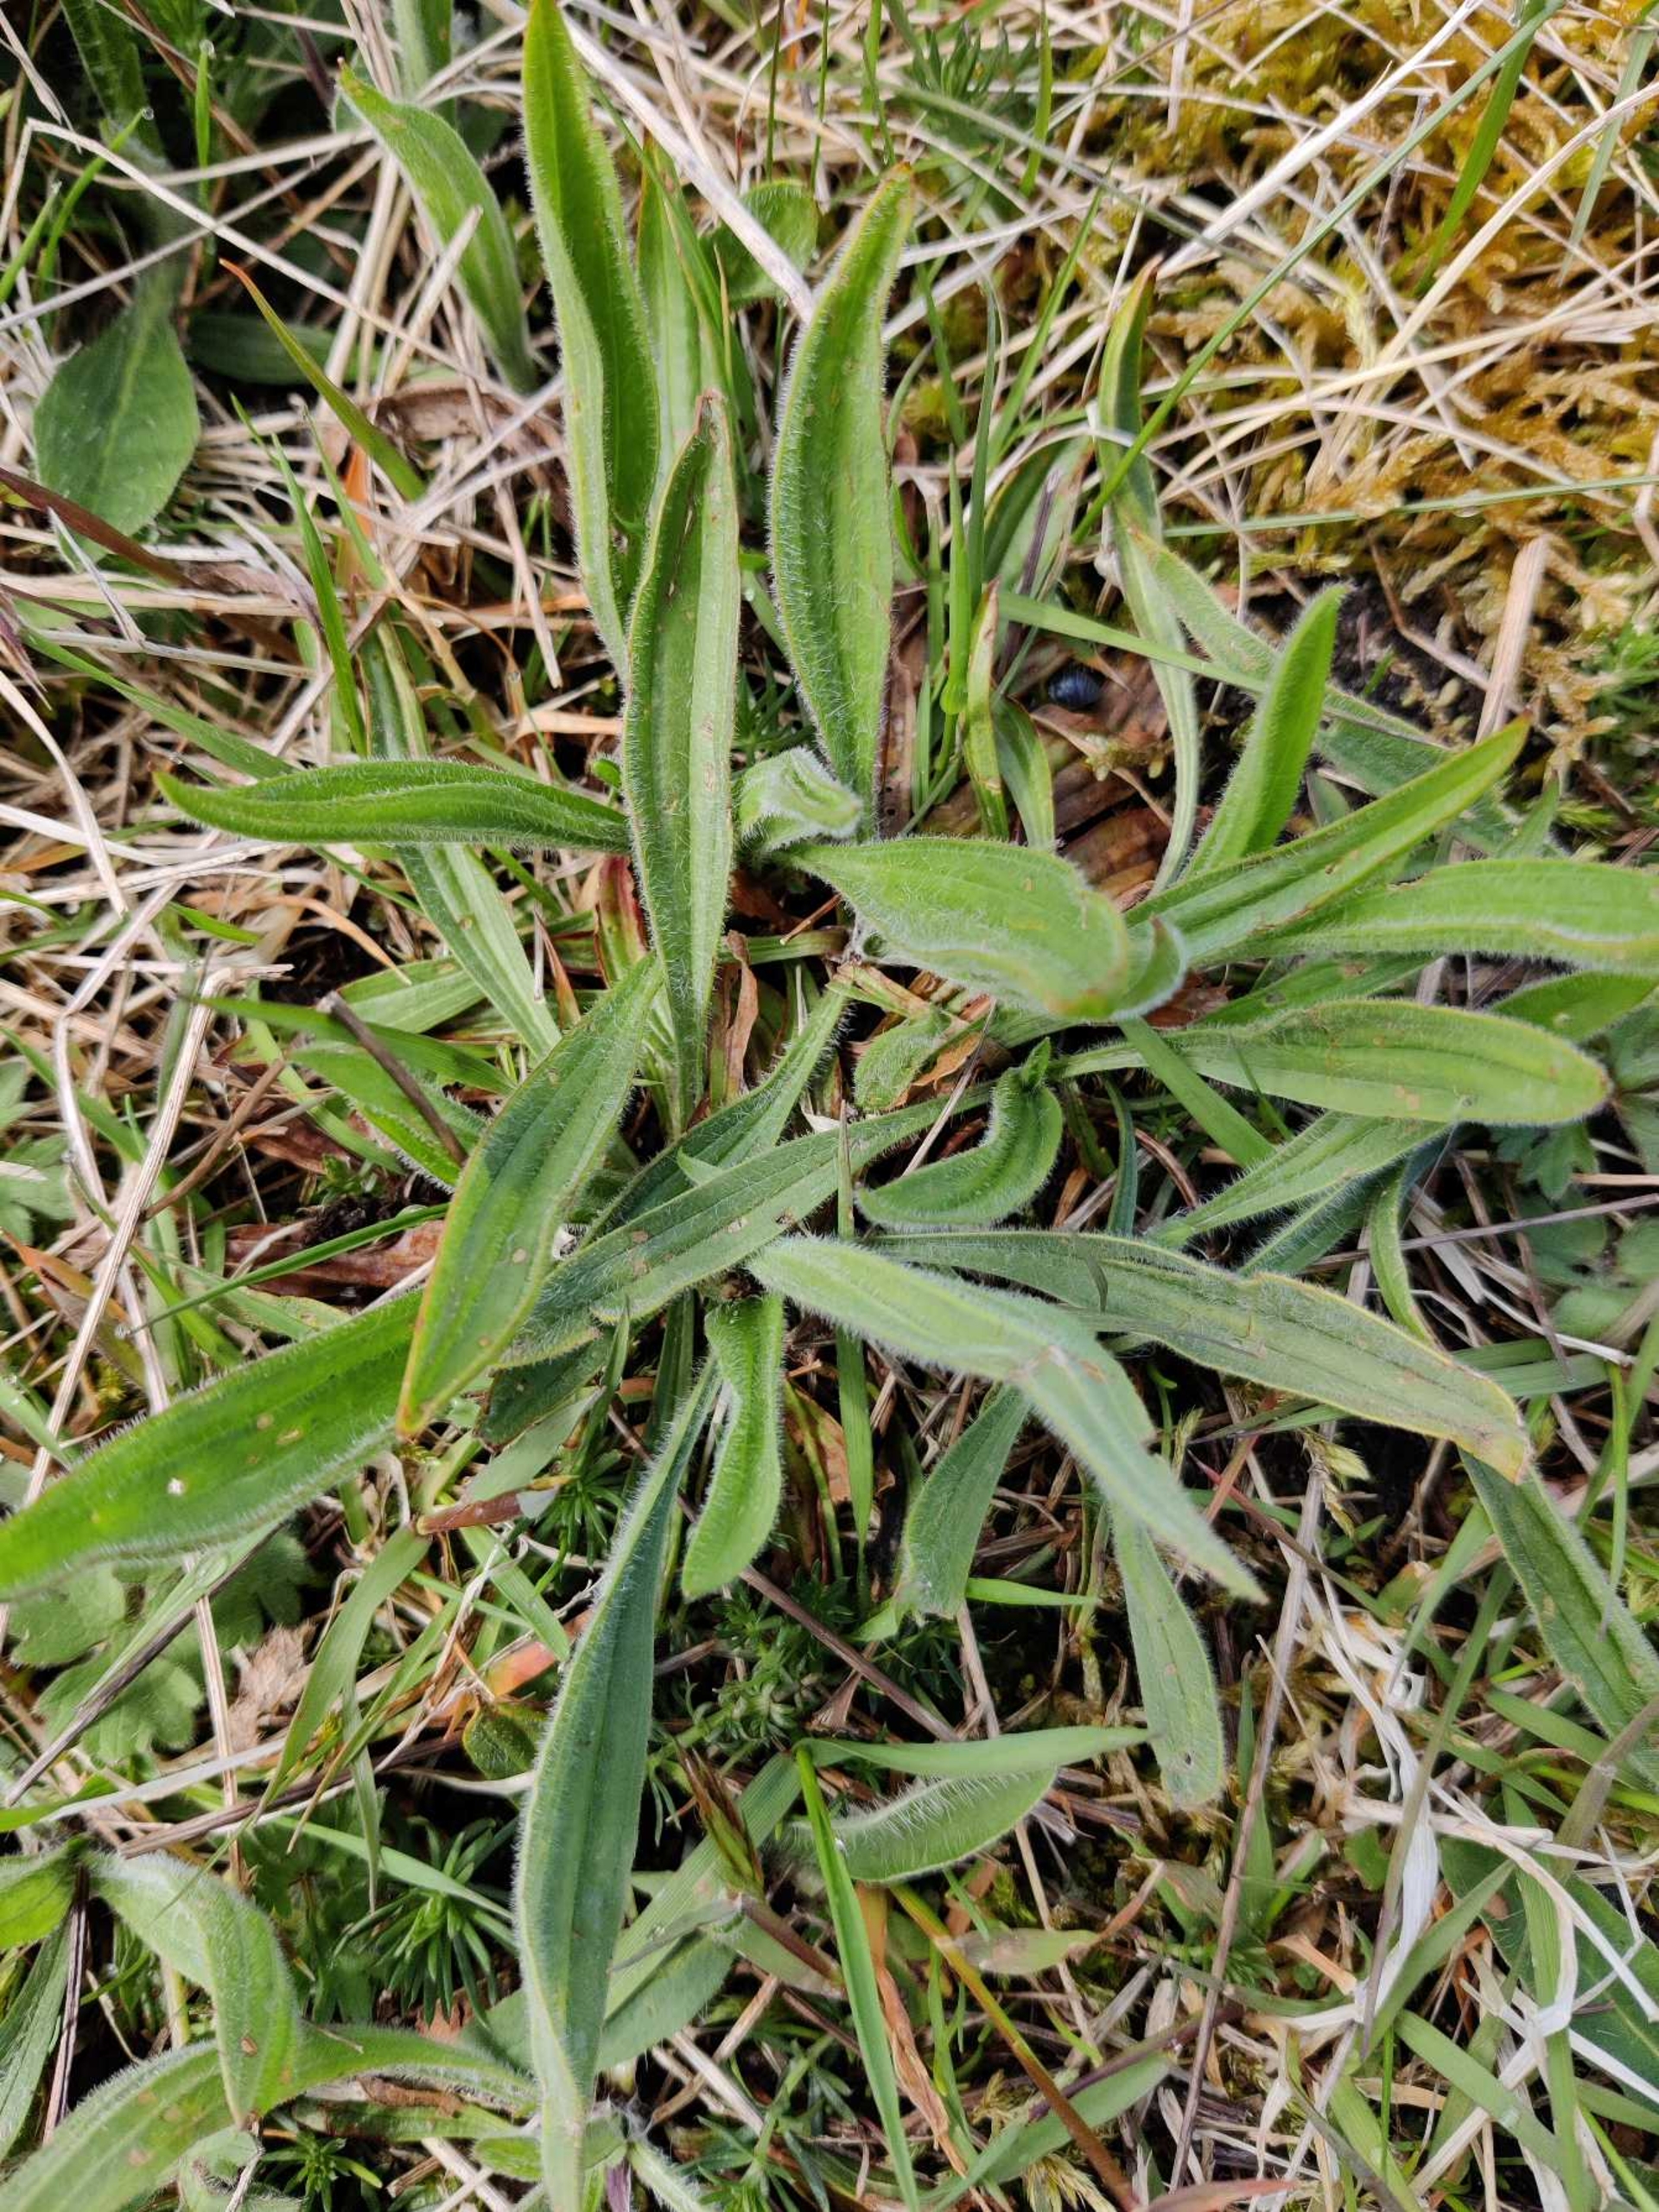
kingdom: Plantae
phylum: Tracheophyta
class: Magnoliopsida
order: Lamiales
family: Plantaginaceae
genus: Plantago
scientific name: Plantago lanceolata
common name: Lancet-vejbred
